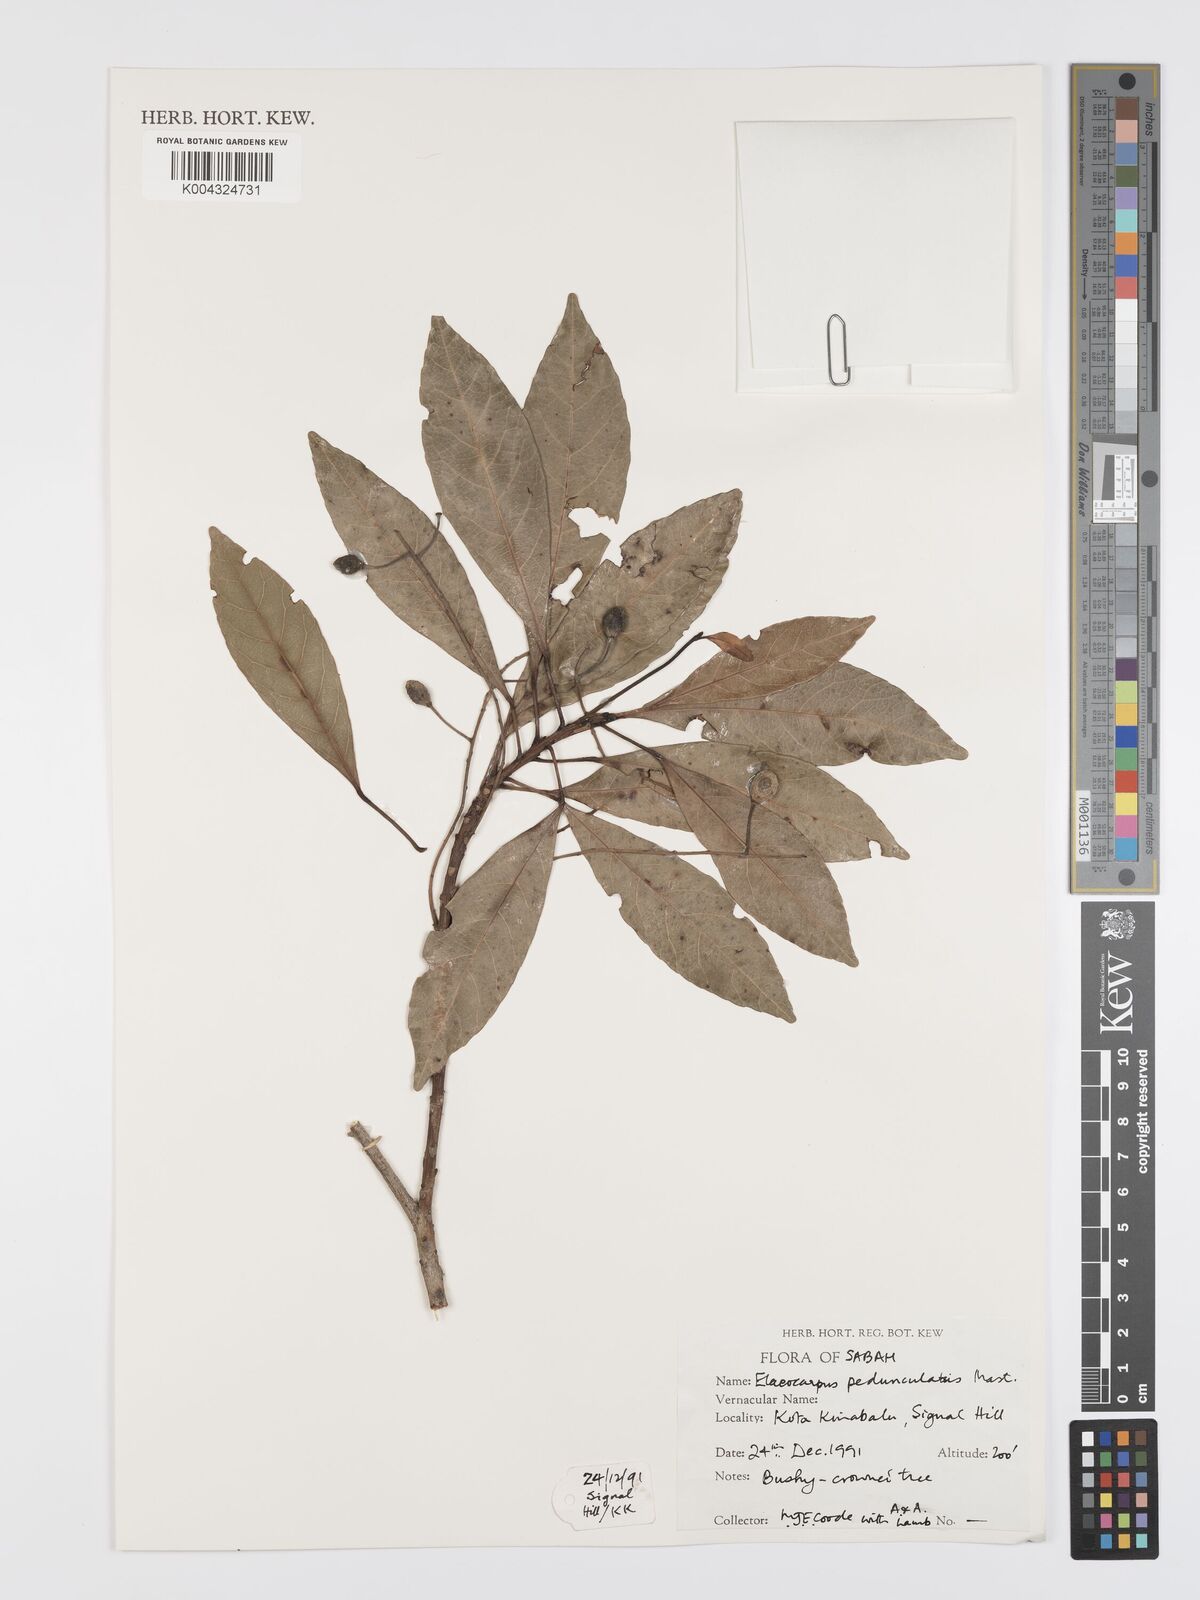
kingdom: Plantae
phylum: Tracheophyta
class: Magnoliopsida
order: Oxalidales
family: Elaeocarpaceae
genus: Elaeocarpus
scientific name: Elaeocarpus pedunculatus
